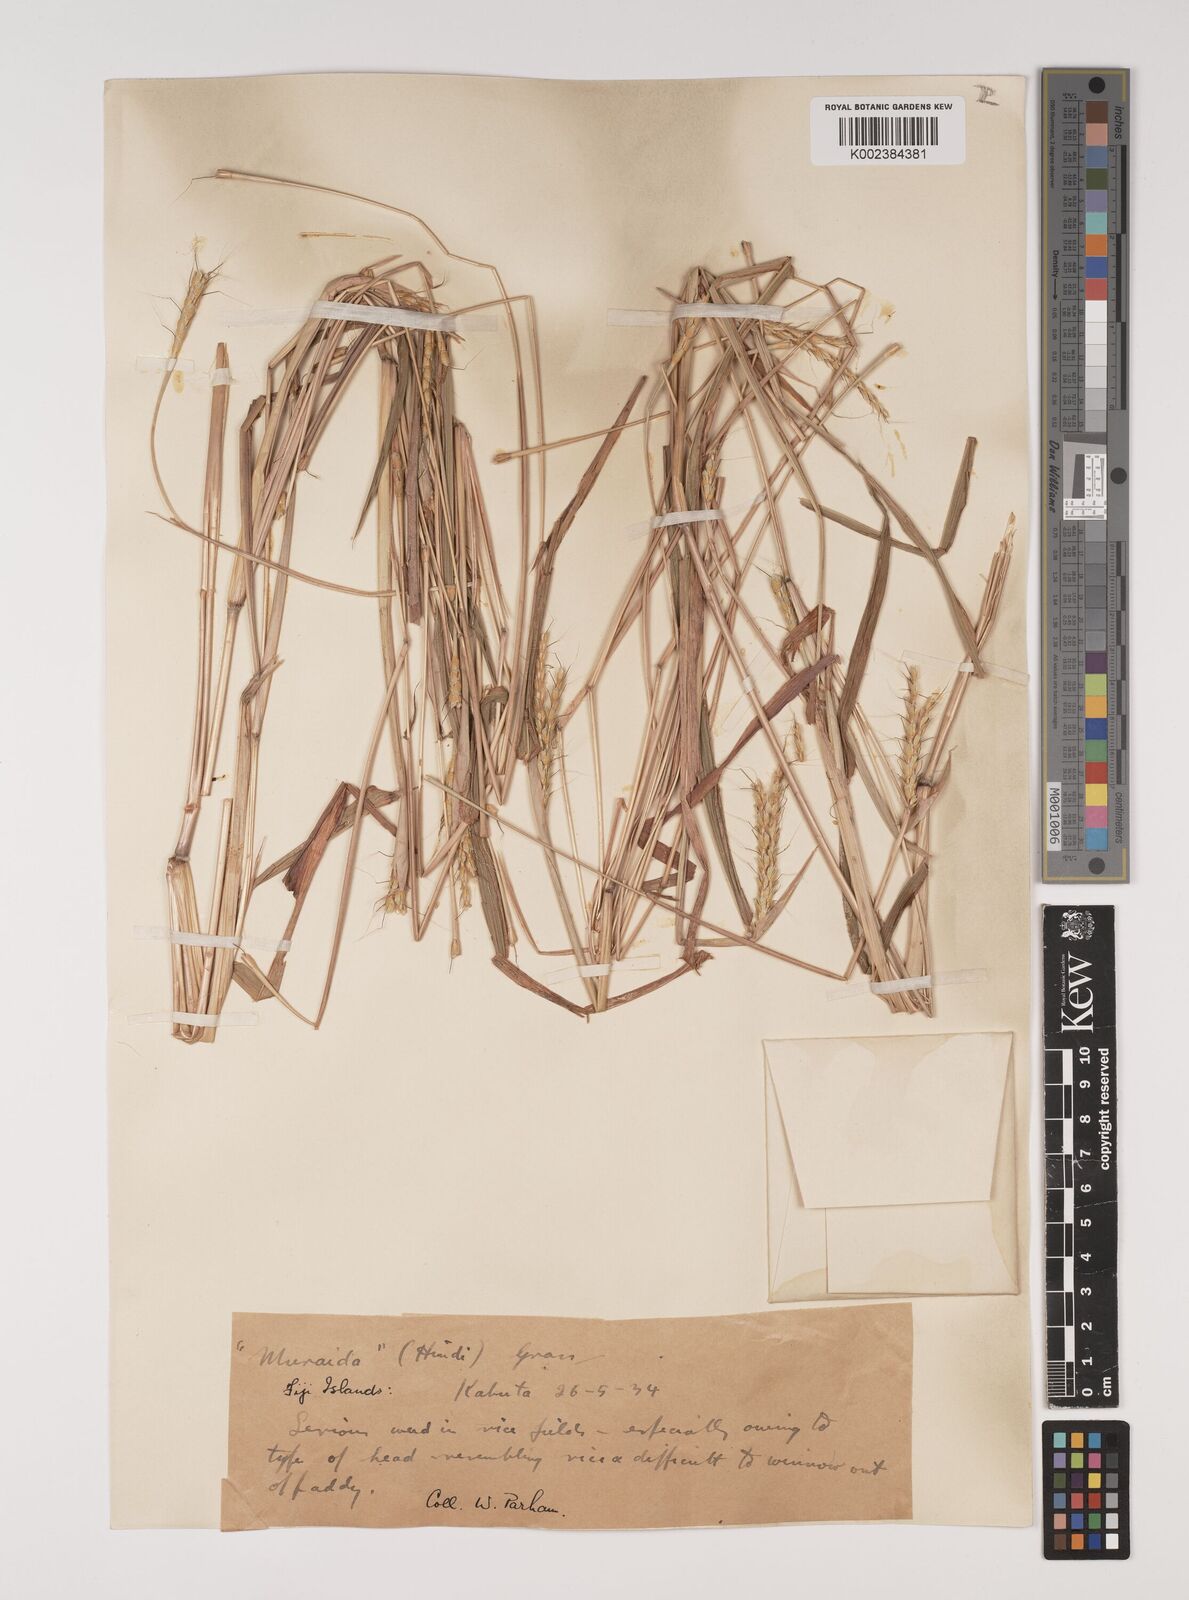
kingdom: Plantae
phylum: Tracheophyta
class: Liliopsida
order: Poales
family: Poaceae
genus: Ischaemum
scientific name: Ischaemum rugosum
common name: Saramatta grass
